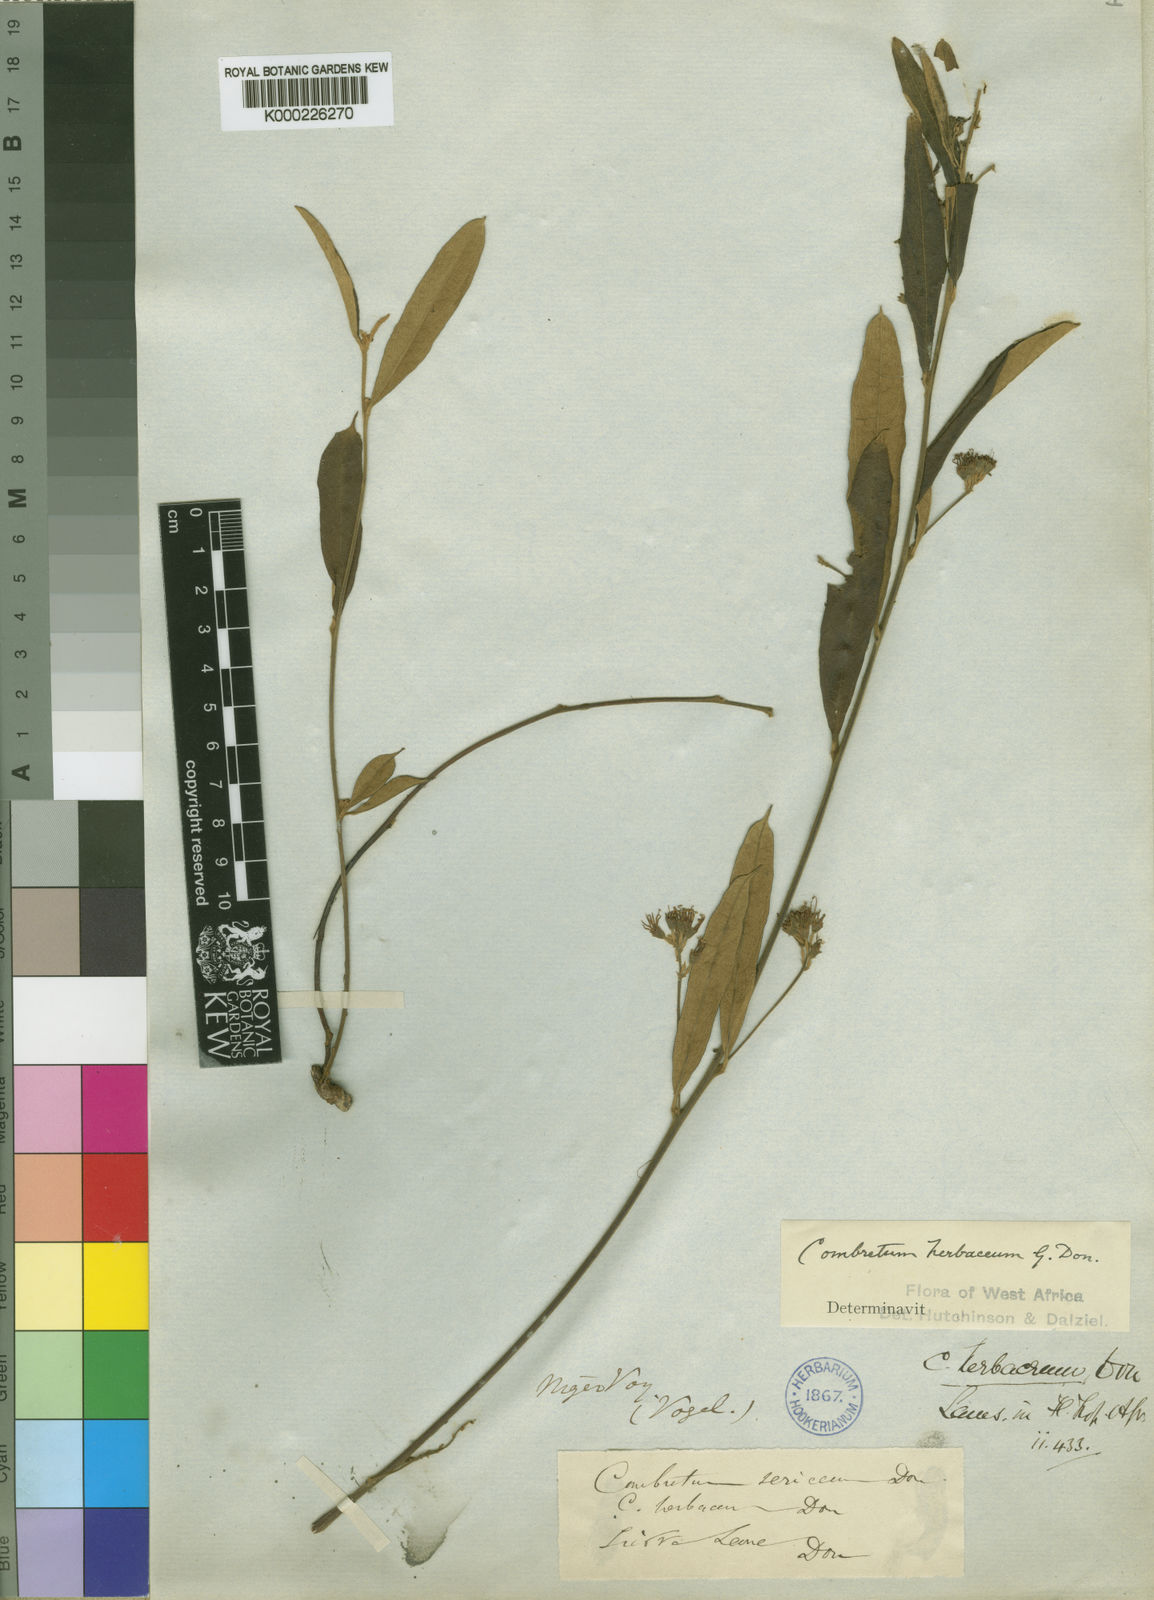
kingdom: Plantae
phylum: Tracheophyta
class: Magnoliopsida
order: Myrtales
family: Combretaceae
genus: Combretum
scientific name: Combretum sericeum
